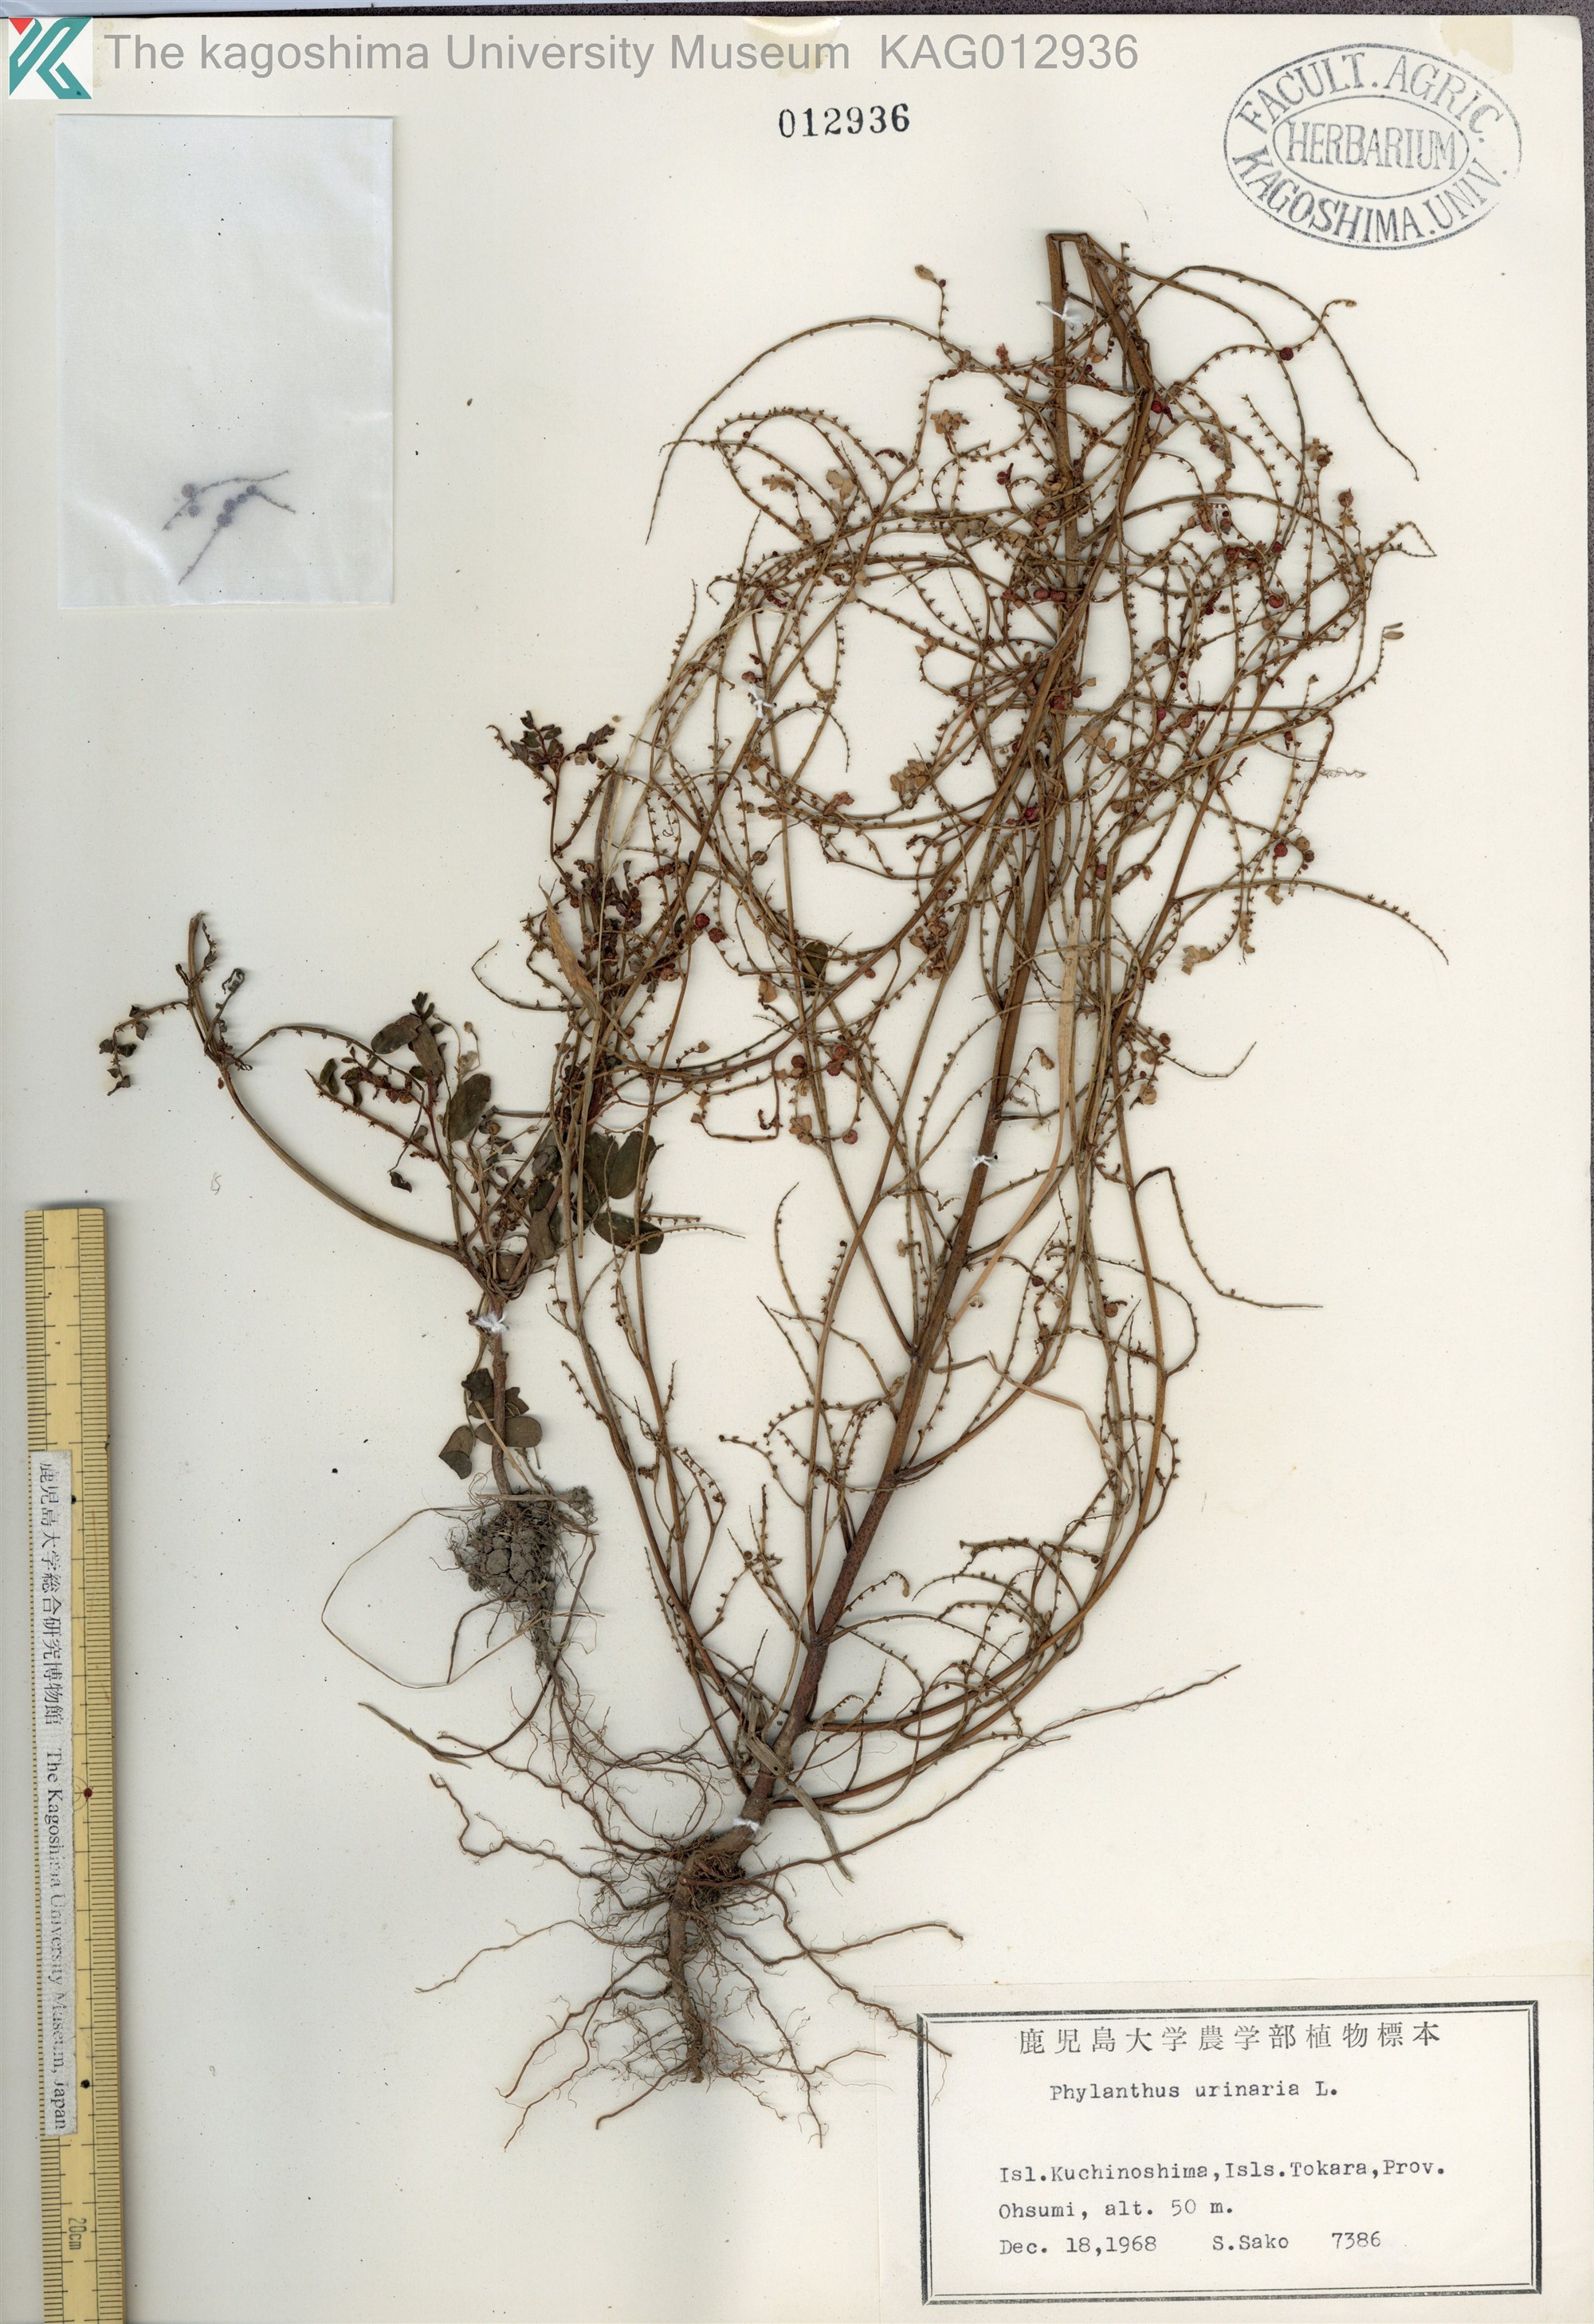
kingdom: Plantae
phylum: Tracheophyta
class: Magnoliopsida
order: Malpighiales
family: Phyllanthaceae
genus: Phyllanthus
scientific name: Phyllanthus urinaria
